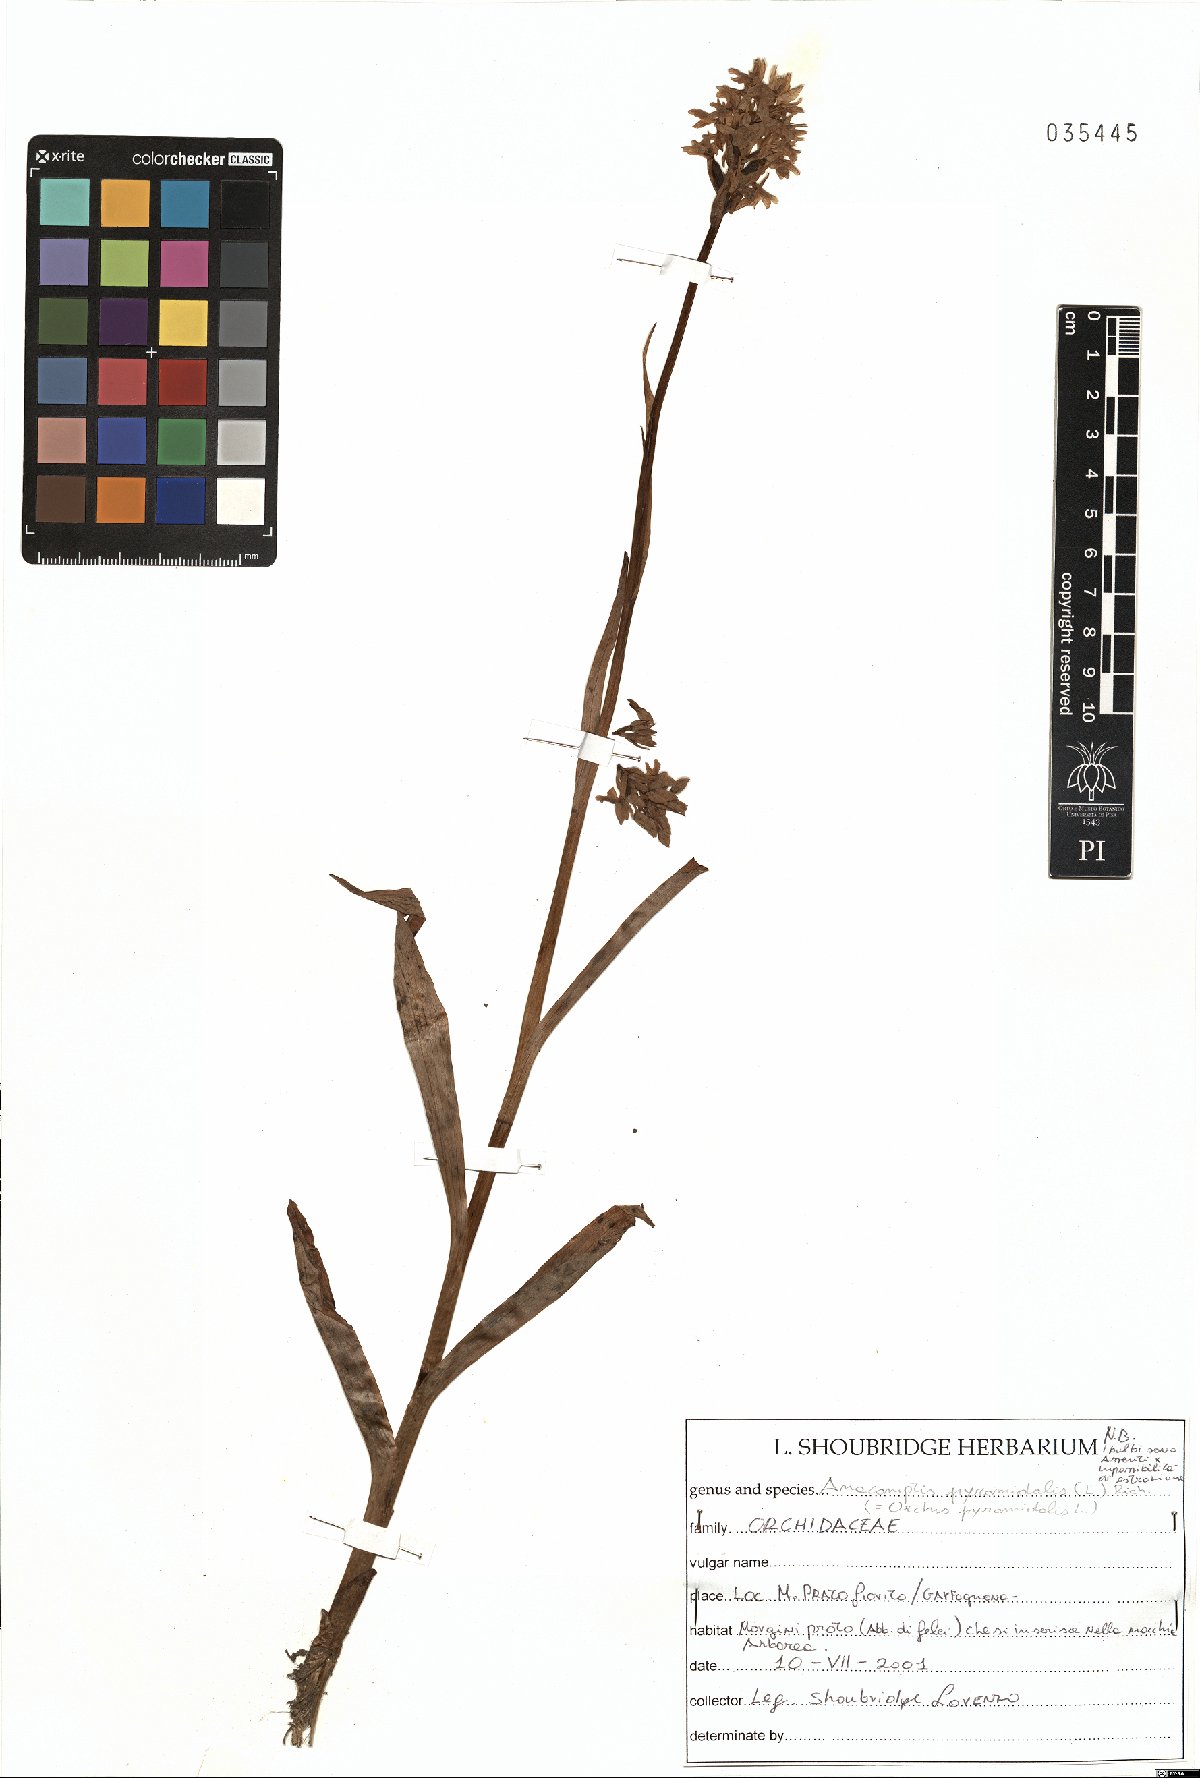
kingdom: Plantae
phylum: Tracheophyta
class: Liliopsida
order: Asparagales
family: Orchidaceae
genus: Anacamptis
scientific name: Anacamptis pyramidalis
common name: Pyramidal orchid
